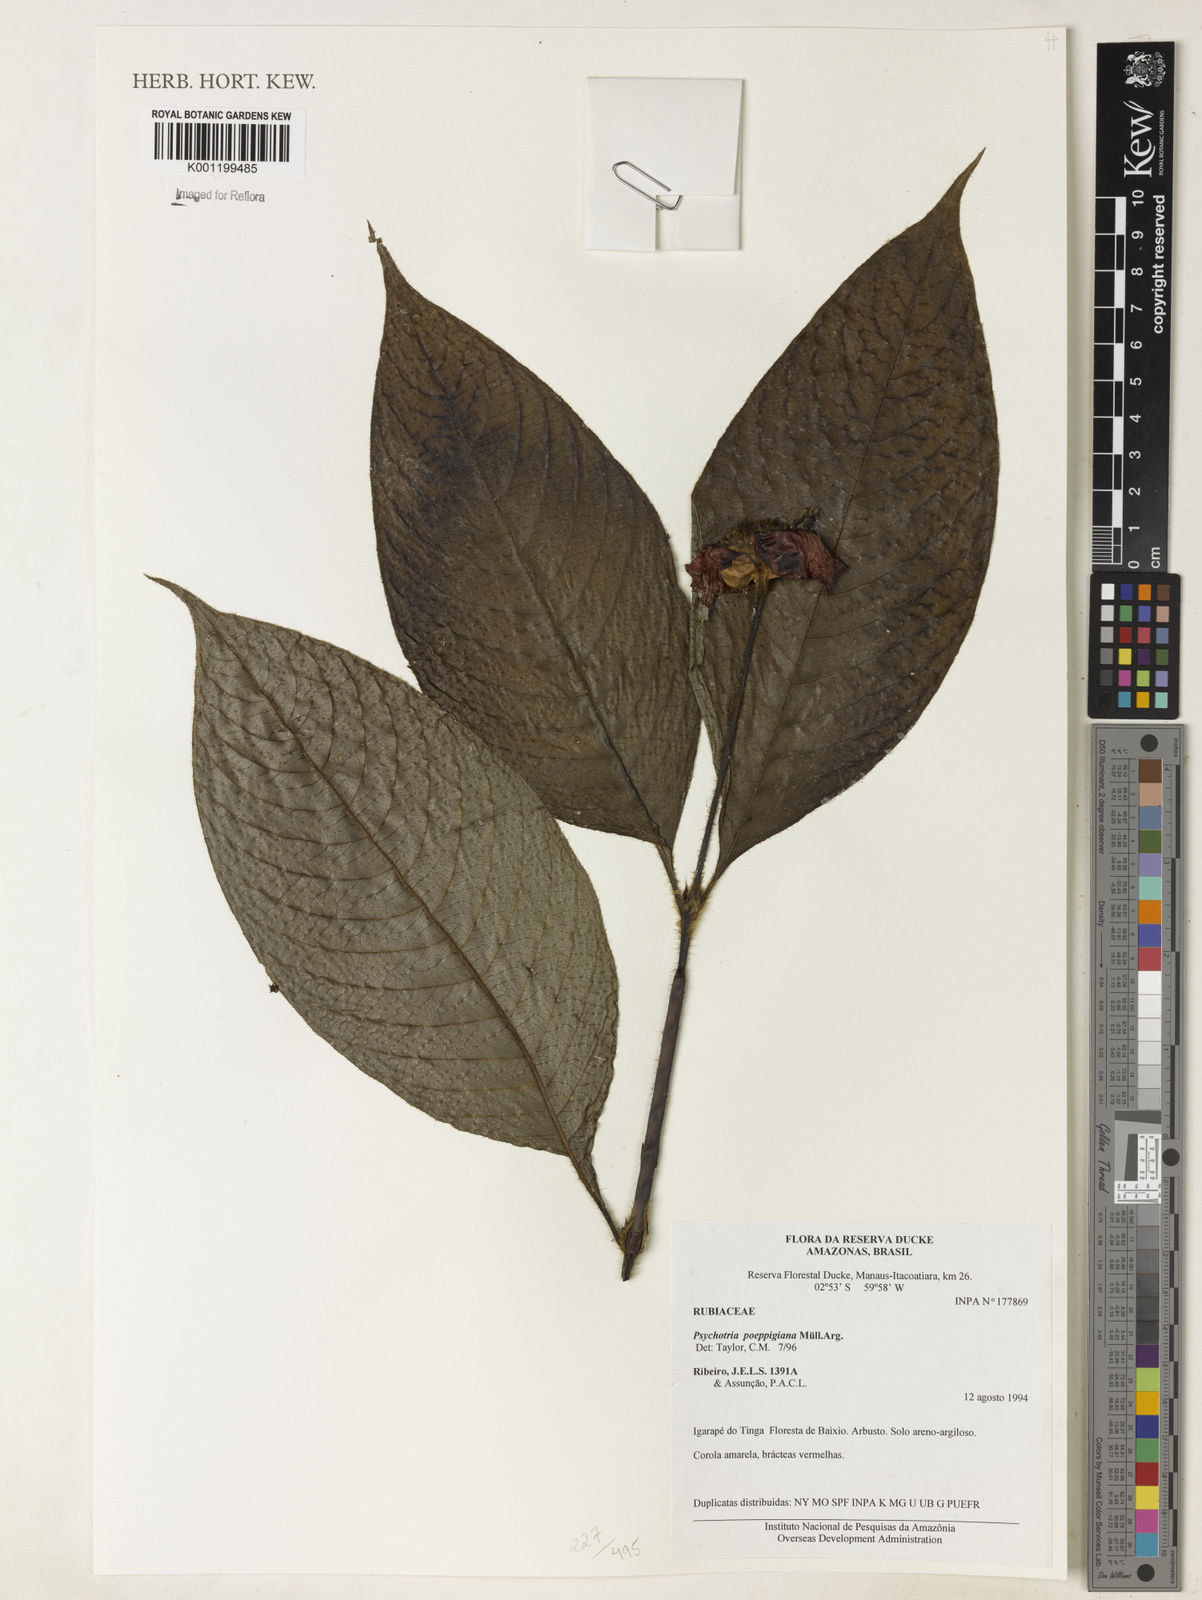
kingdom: Plantae
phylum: Tracheophyta
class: Magnoliopsida
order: Gentianales
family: Rubiaceae
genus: Psychotria
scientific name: Psychotria
